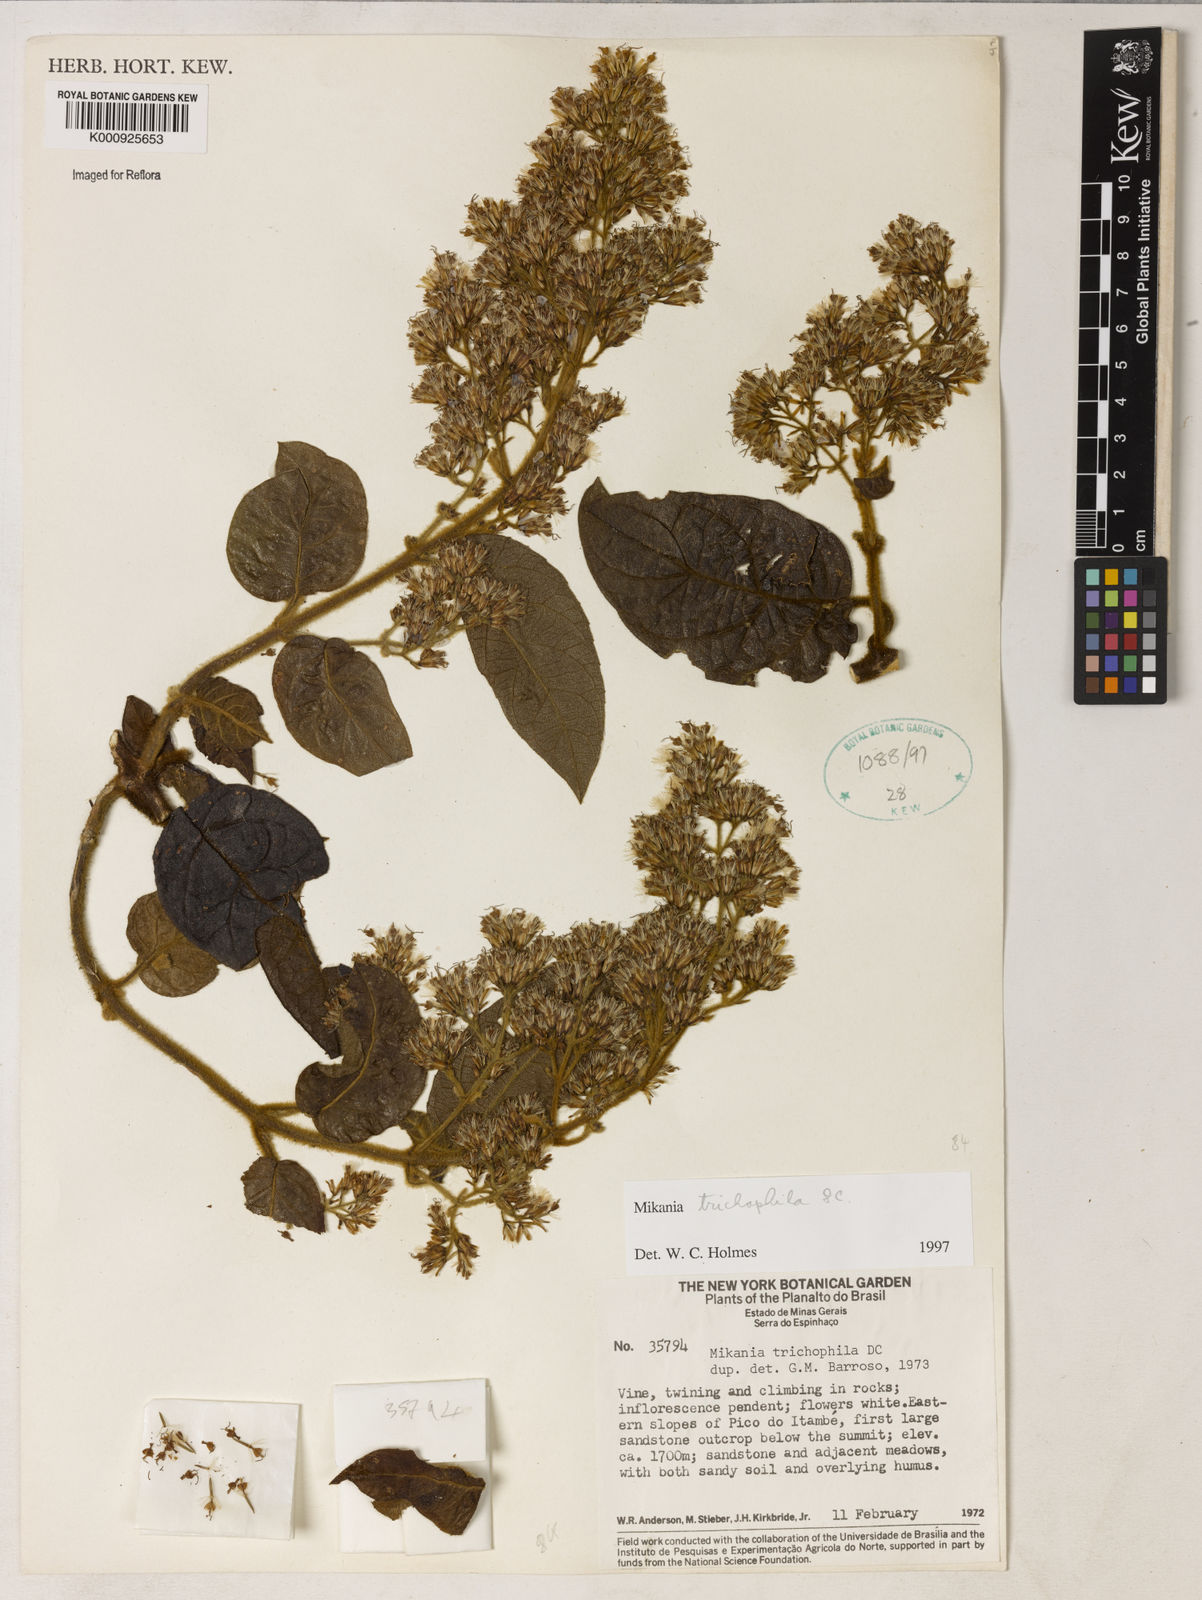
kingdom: Plantae
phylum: Tracheophyta
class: Magnoliopsida
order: Asterales
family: Asteraceae
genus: Mikania
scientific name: Mikania trichophila
